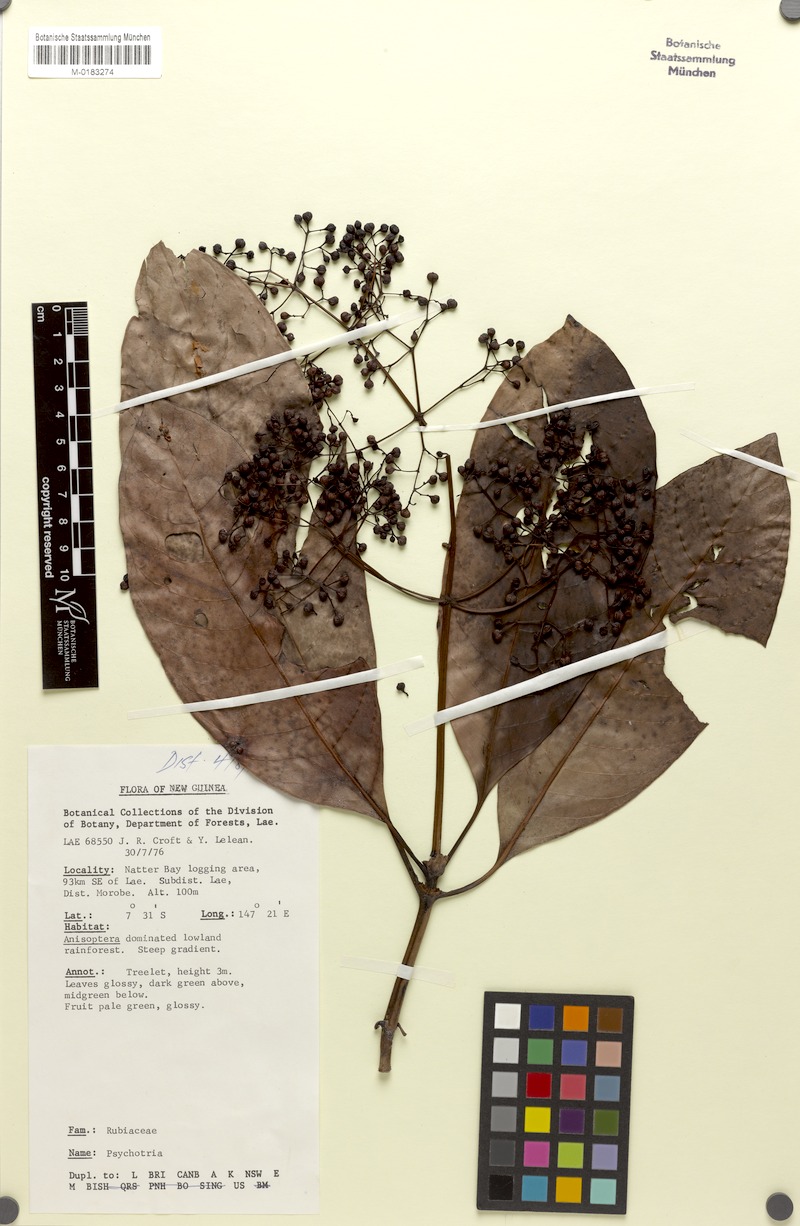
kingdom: Plantae
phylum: Tracheophyta
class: Magnoliopsida
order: Gentianales
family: Rubiaceae
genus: Psychotria
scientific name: Psychotria croftiana
